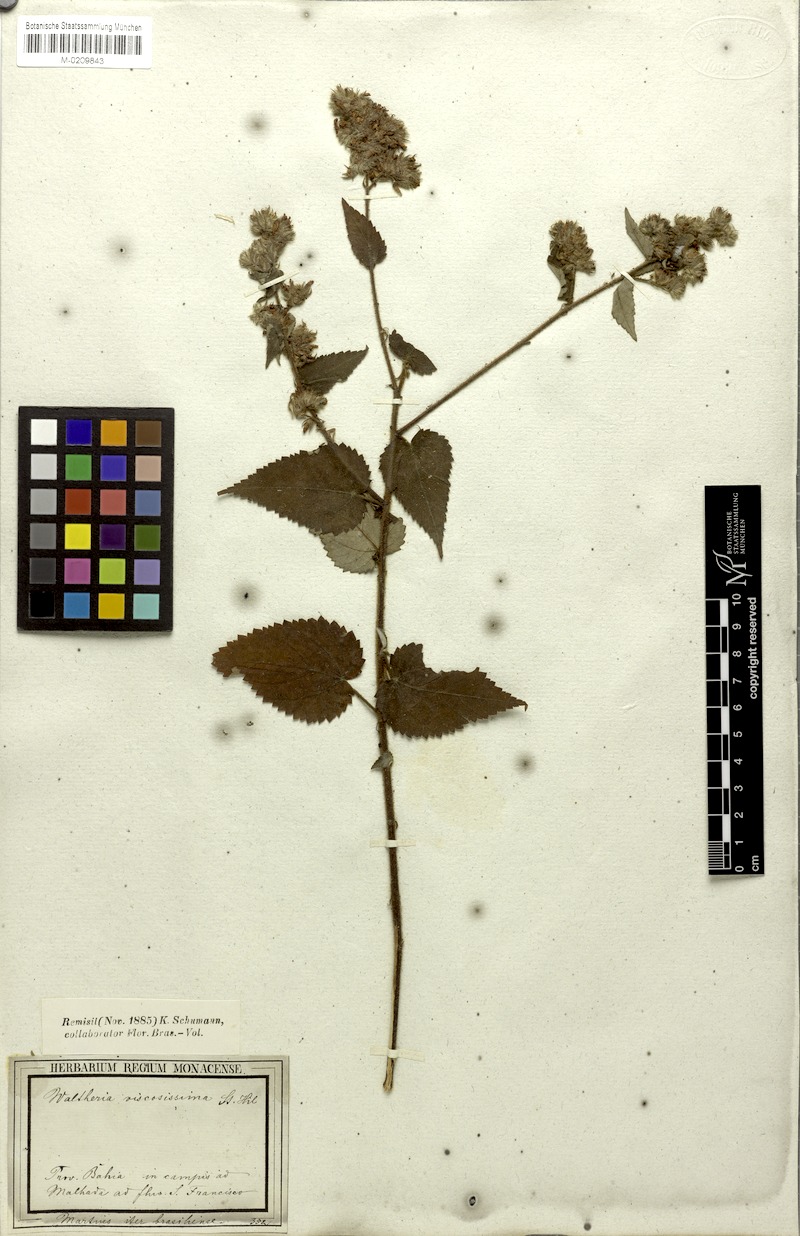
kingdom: Plantae
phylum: Tracheophyta
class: Magnoliopsida
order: Malvales
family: Malvaceae
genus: Waltheria
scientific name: Waltheria viscosissima
